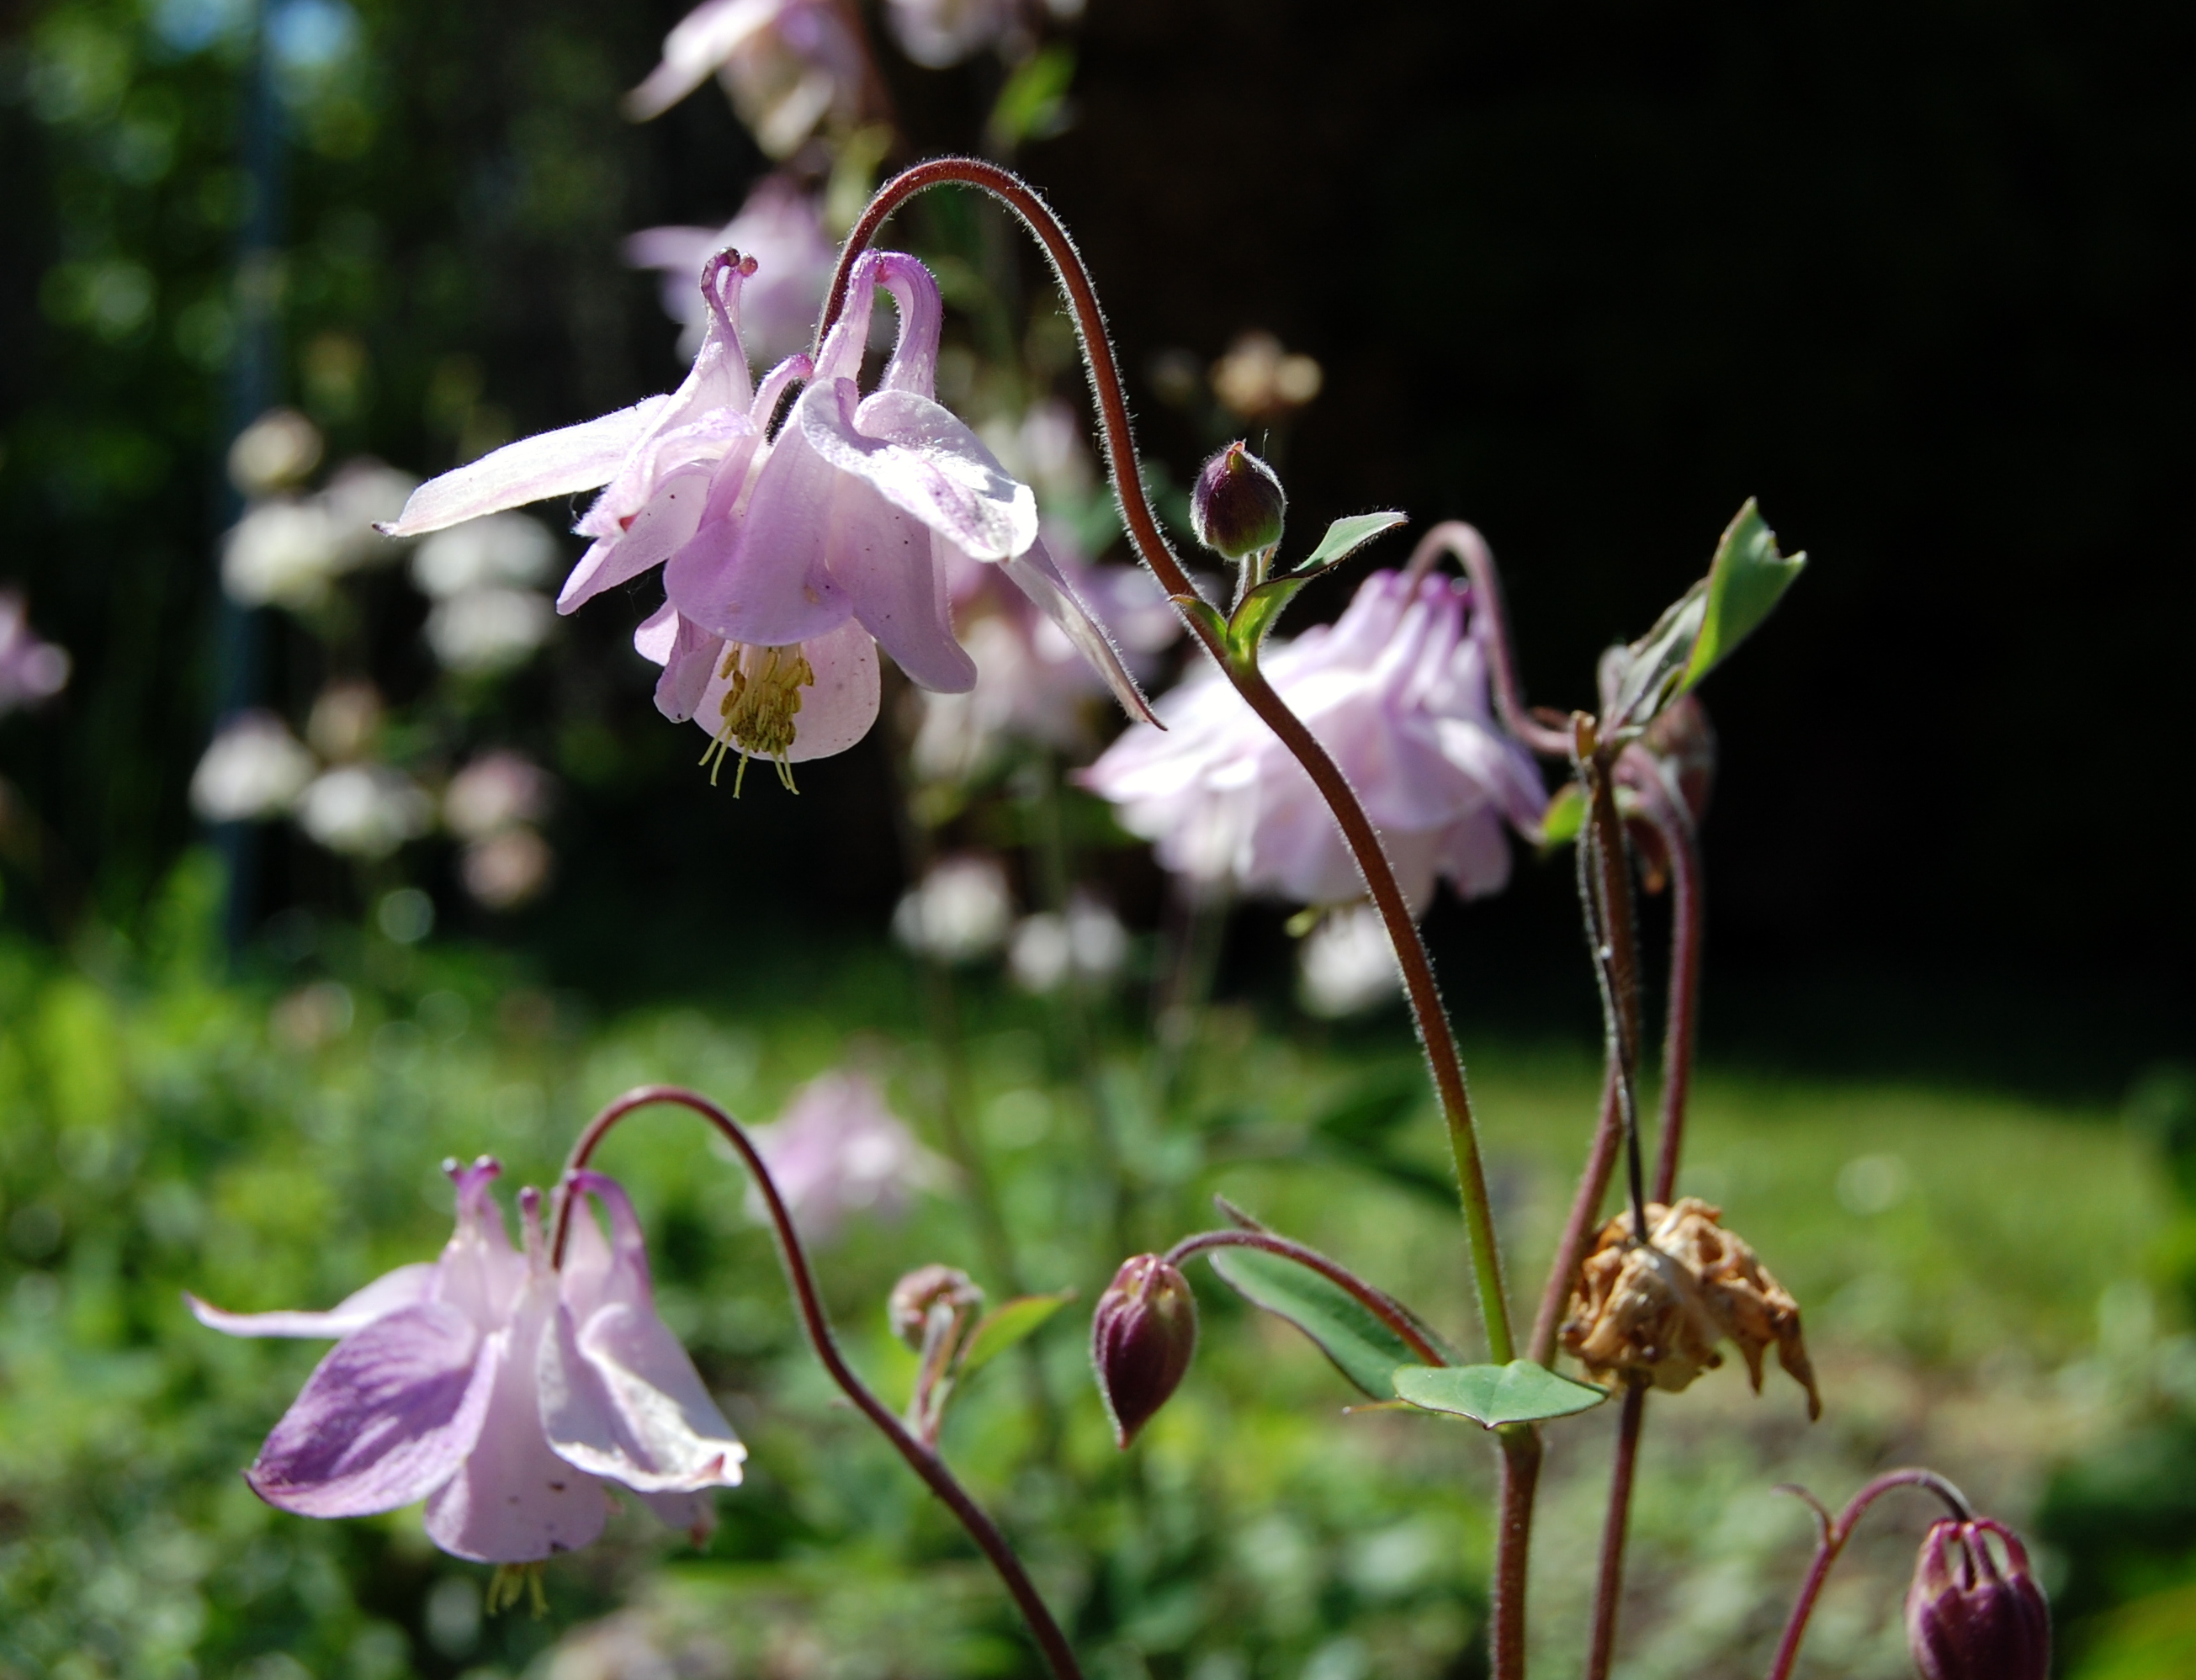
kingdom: Plantae
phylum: Tracheophyta
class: Magnoliopsida
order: Ranunculales
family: Ranunculaceae
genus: Aquilegia
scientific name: Aquilegia vulgaris
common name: Columbine
